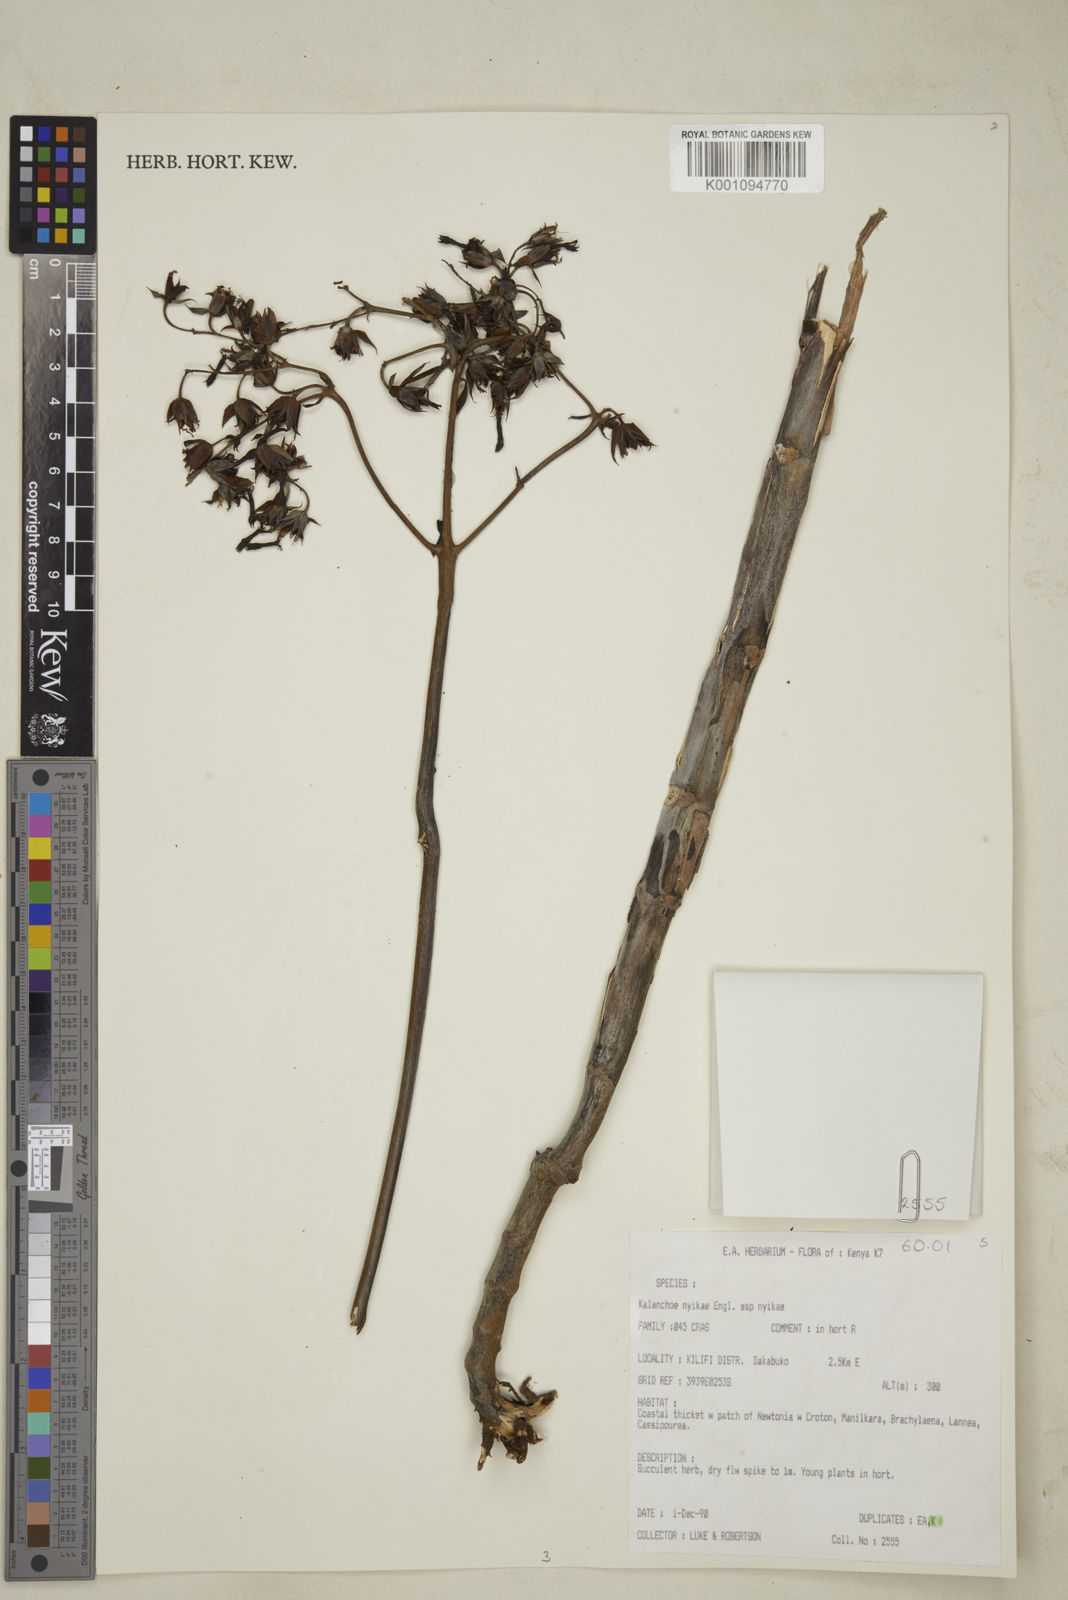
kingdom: Plantae
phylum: Tracheophyta
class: Magnoliopsida
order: Saxifragales
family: Crassulaceae
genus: Kalanchoe
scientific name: Kalanchoe nyikae
